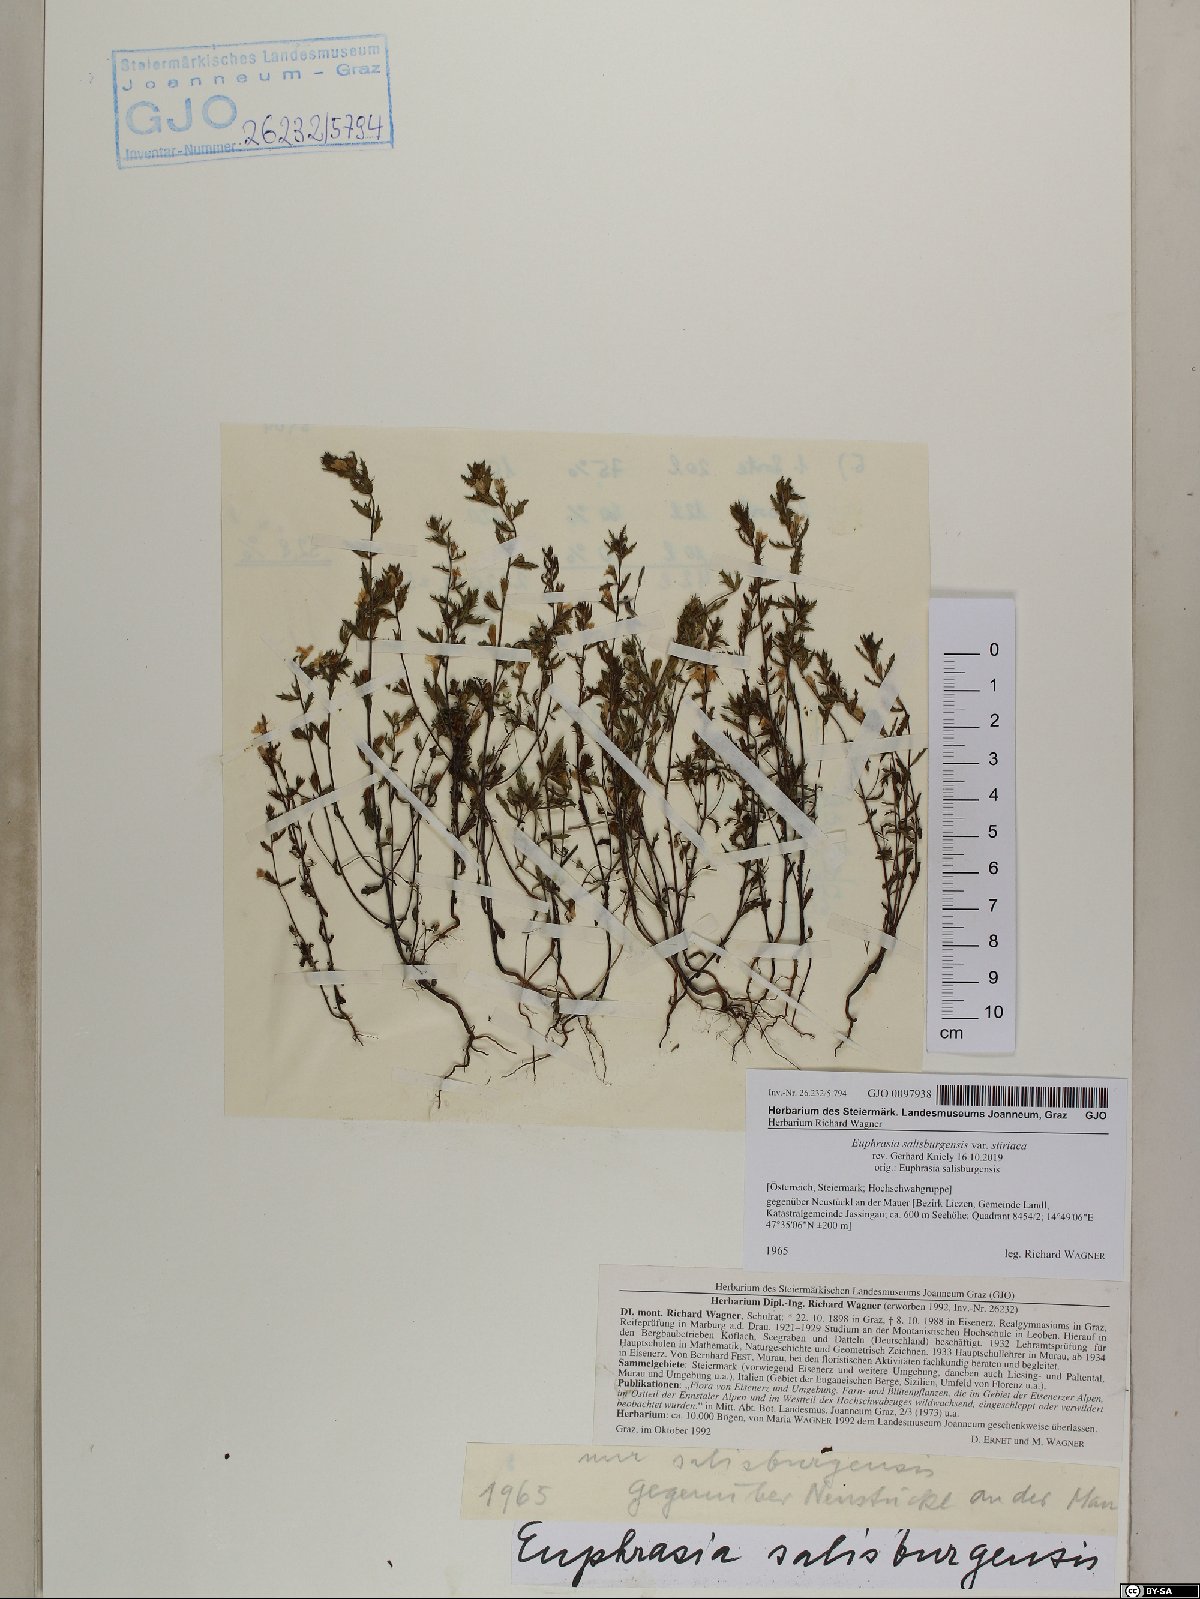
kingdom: Plantae
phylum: Tracheophyta
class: Magnoliopsida
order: Lamiales
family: Orobanchaceae
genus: Euphrasia
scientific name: Euphrasia salisburgensis
